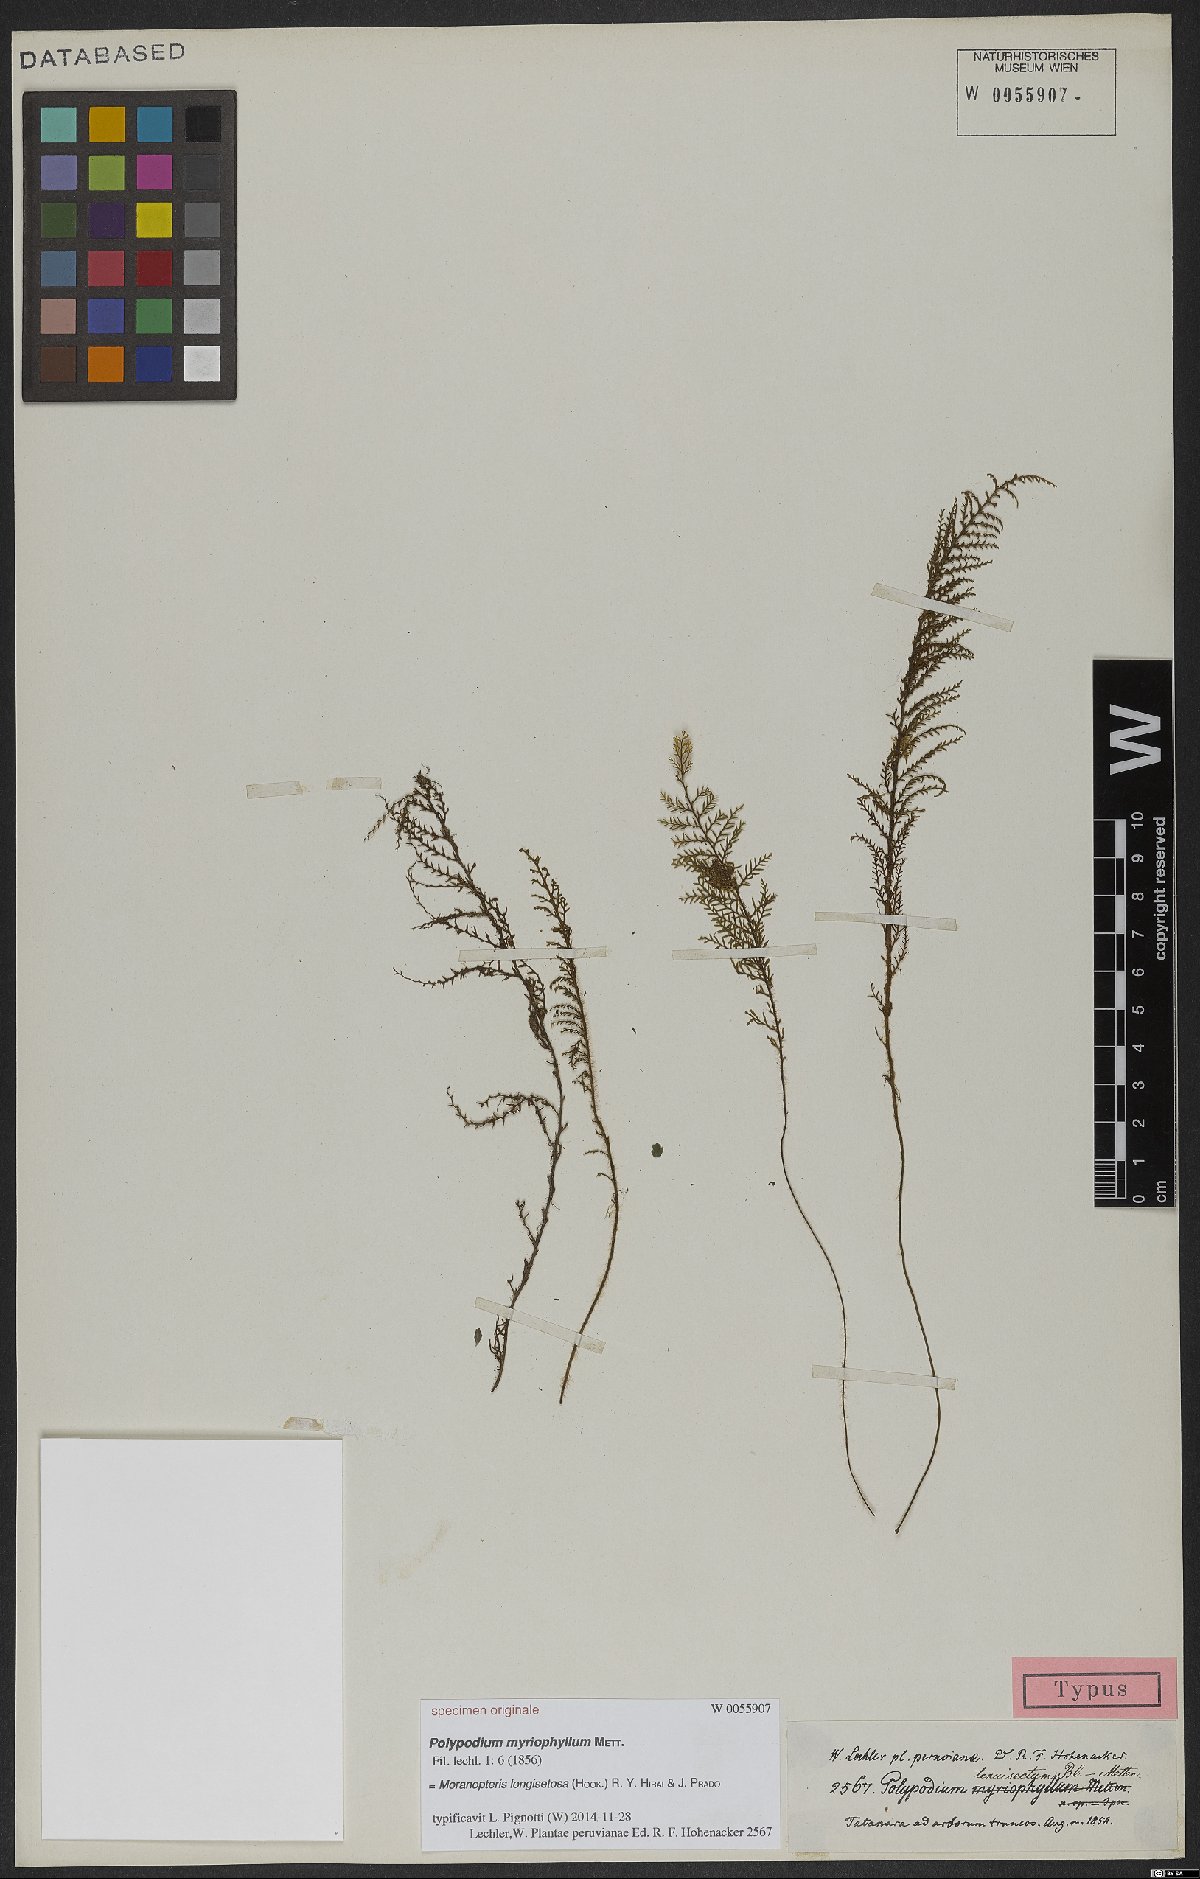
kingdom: Plantae
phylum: Tracheophyta
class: Polypodiopsida
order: Polypodiales
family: Polypodiaceae
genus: Moranopteris
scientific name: Moranopteris longisetosa
